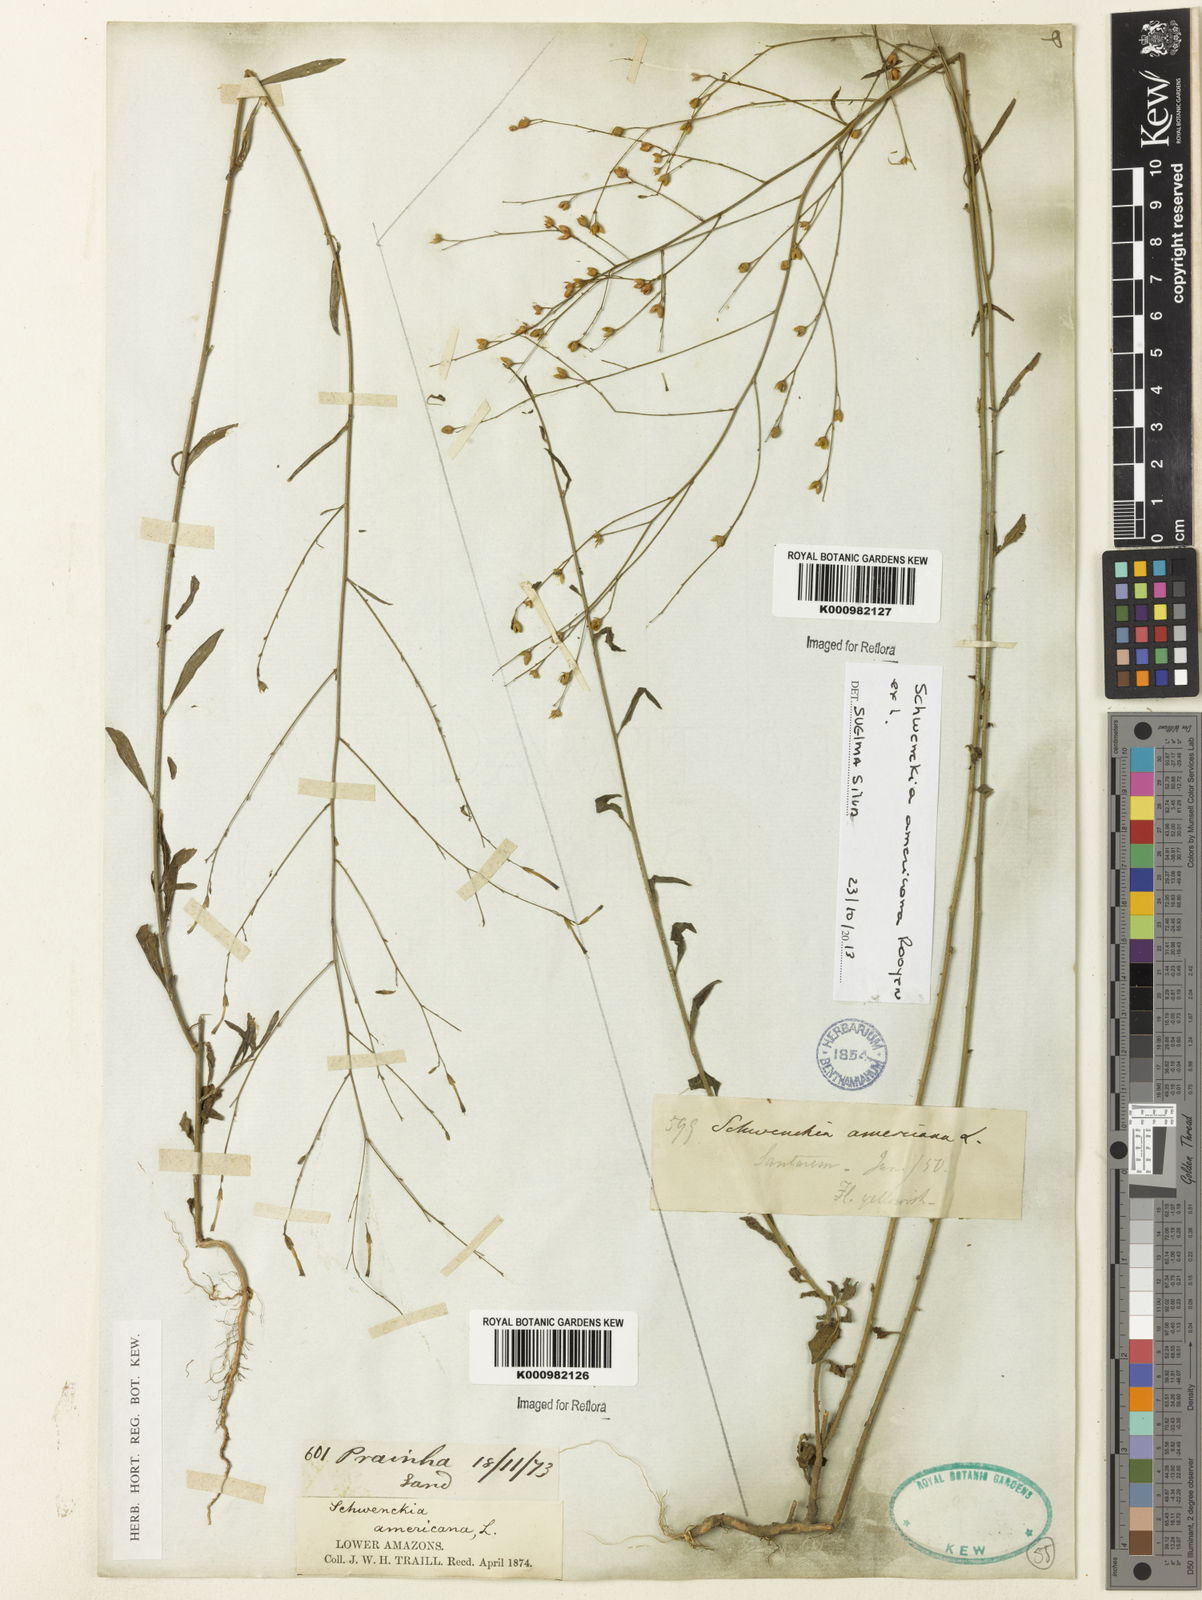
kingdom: Plantae
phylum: Tracheophyta
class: Magnoliopsida
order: Solanales
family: Solanaceae
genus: Schwenckia
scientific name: Schwenckia americana
